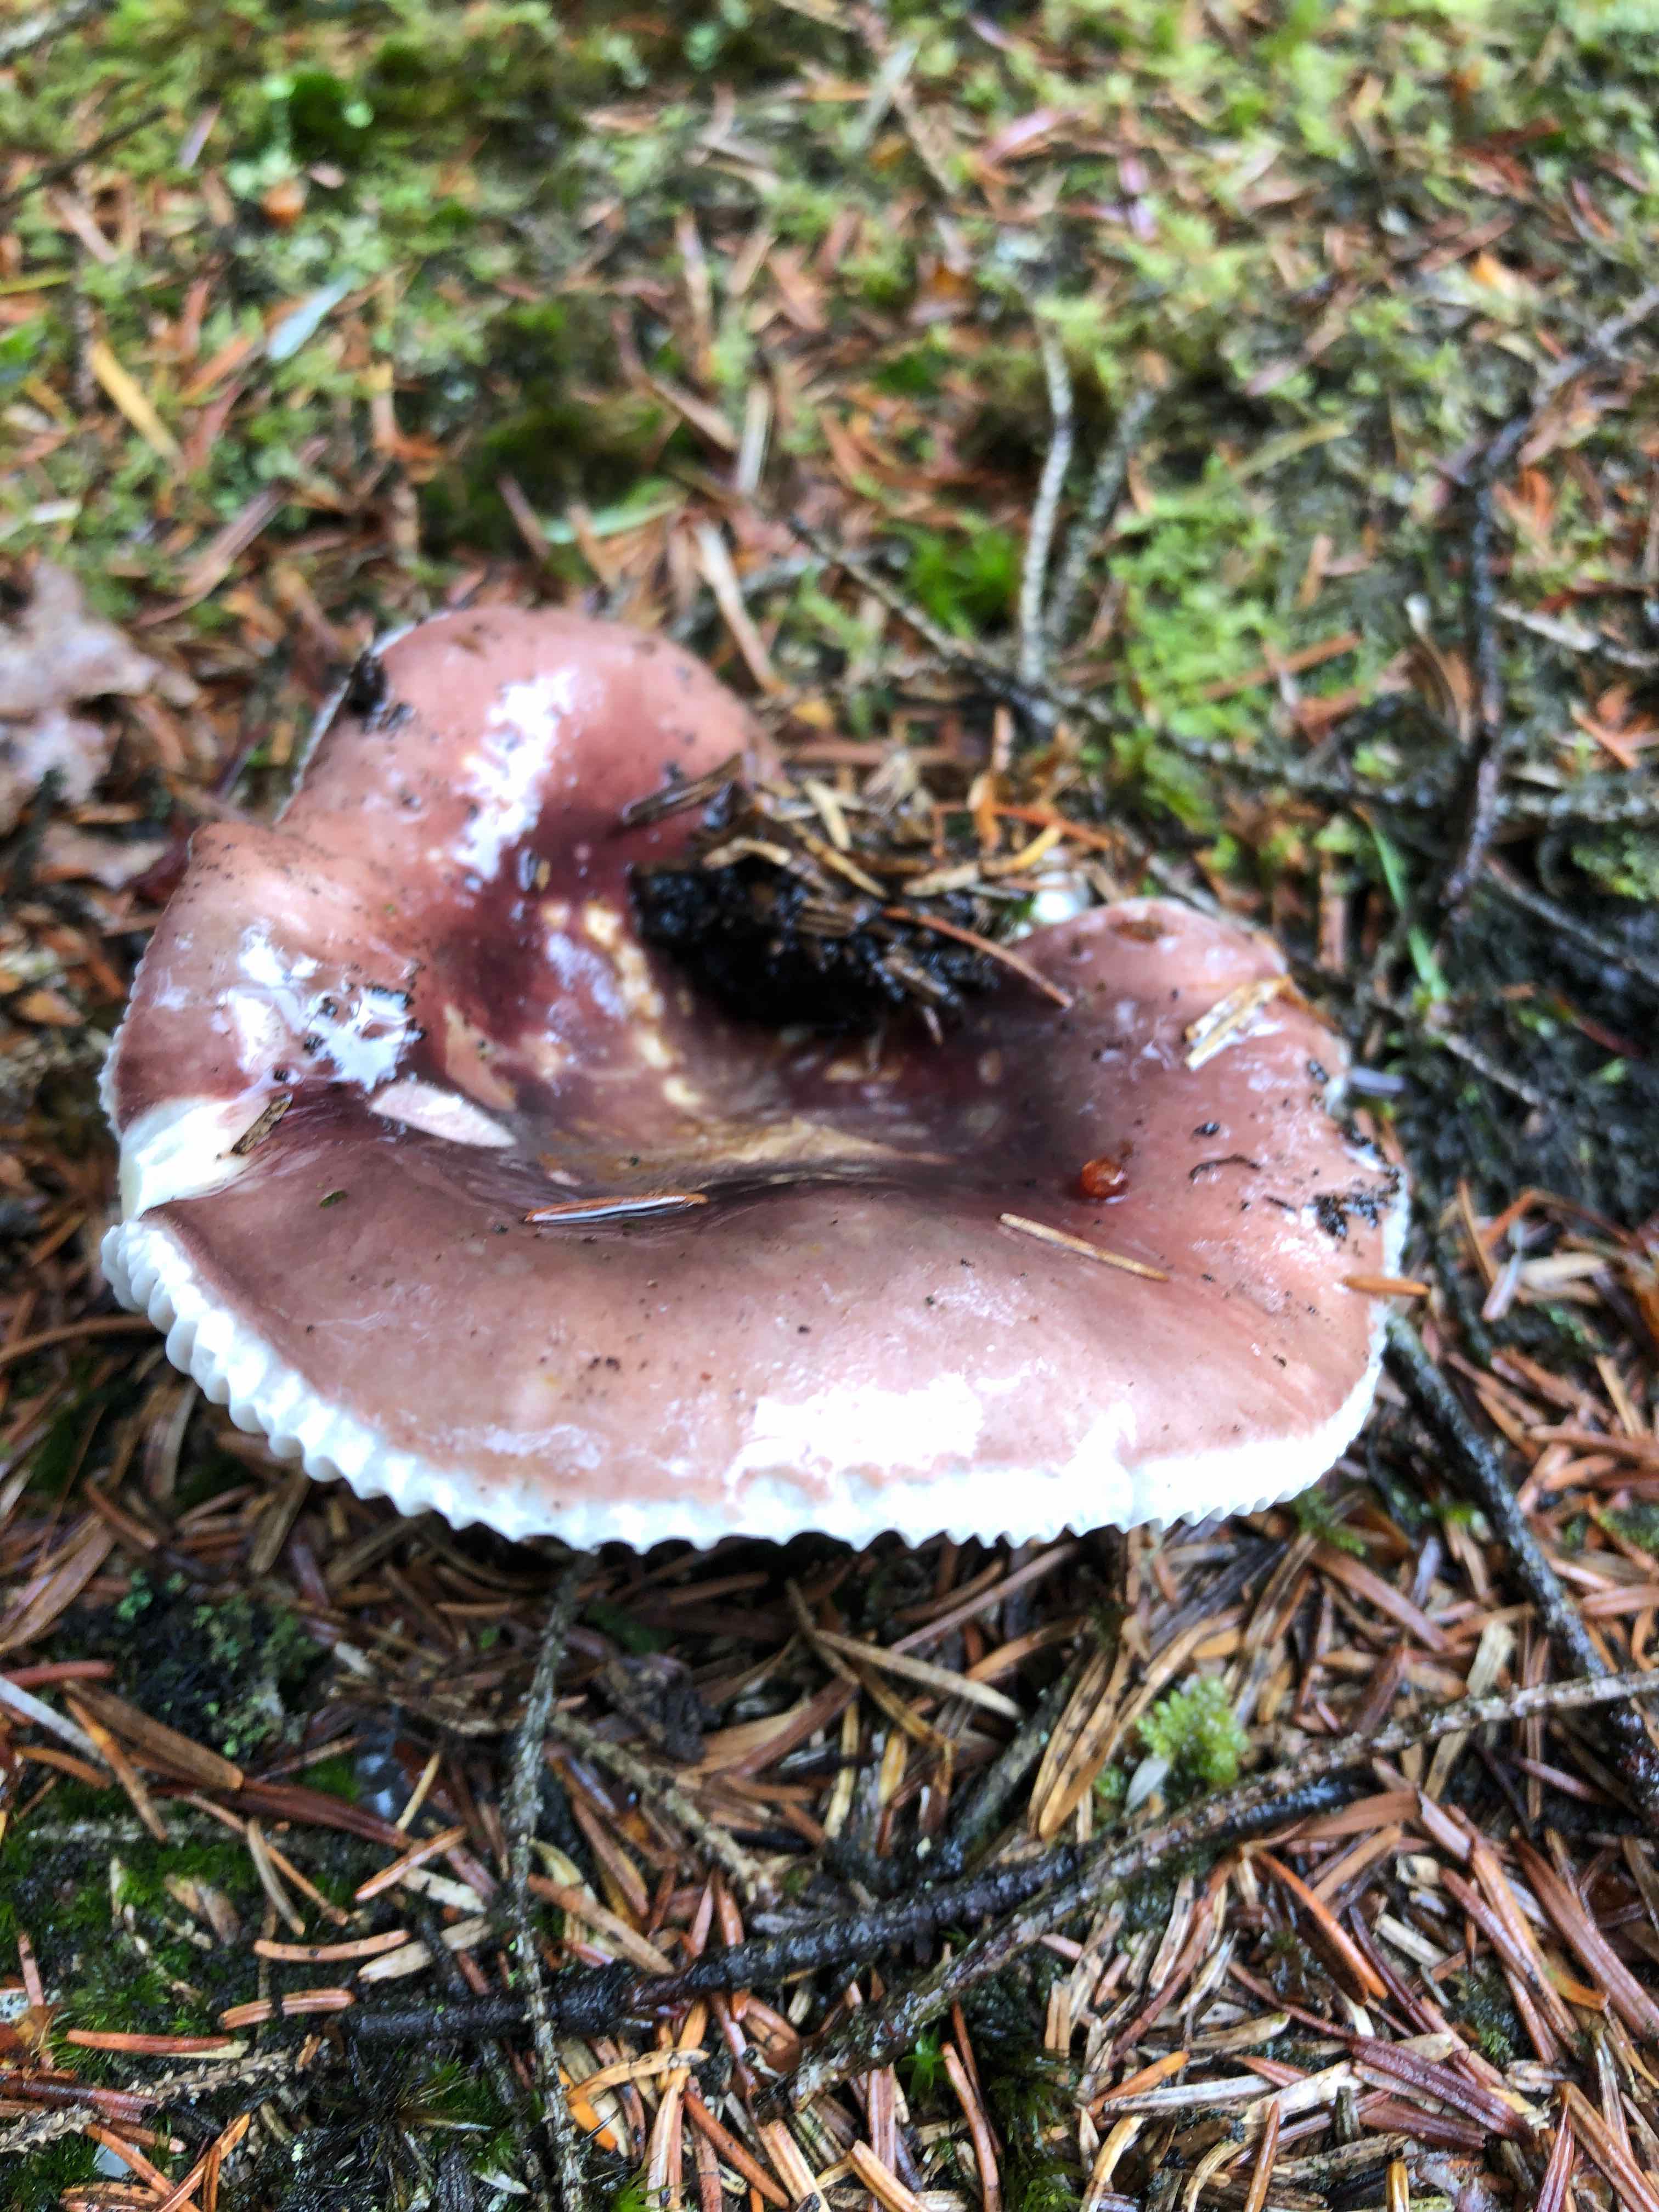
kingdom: Fungi
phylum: Basidiomycota
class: Agaricomycetes
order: Russulales
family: Russulaceae
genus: Russula
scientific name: Russula vesca
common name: spiselig skørhat
